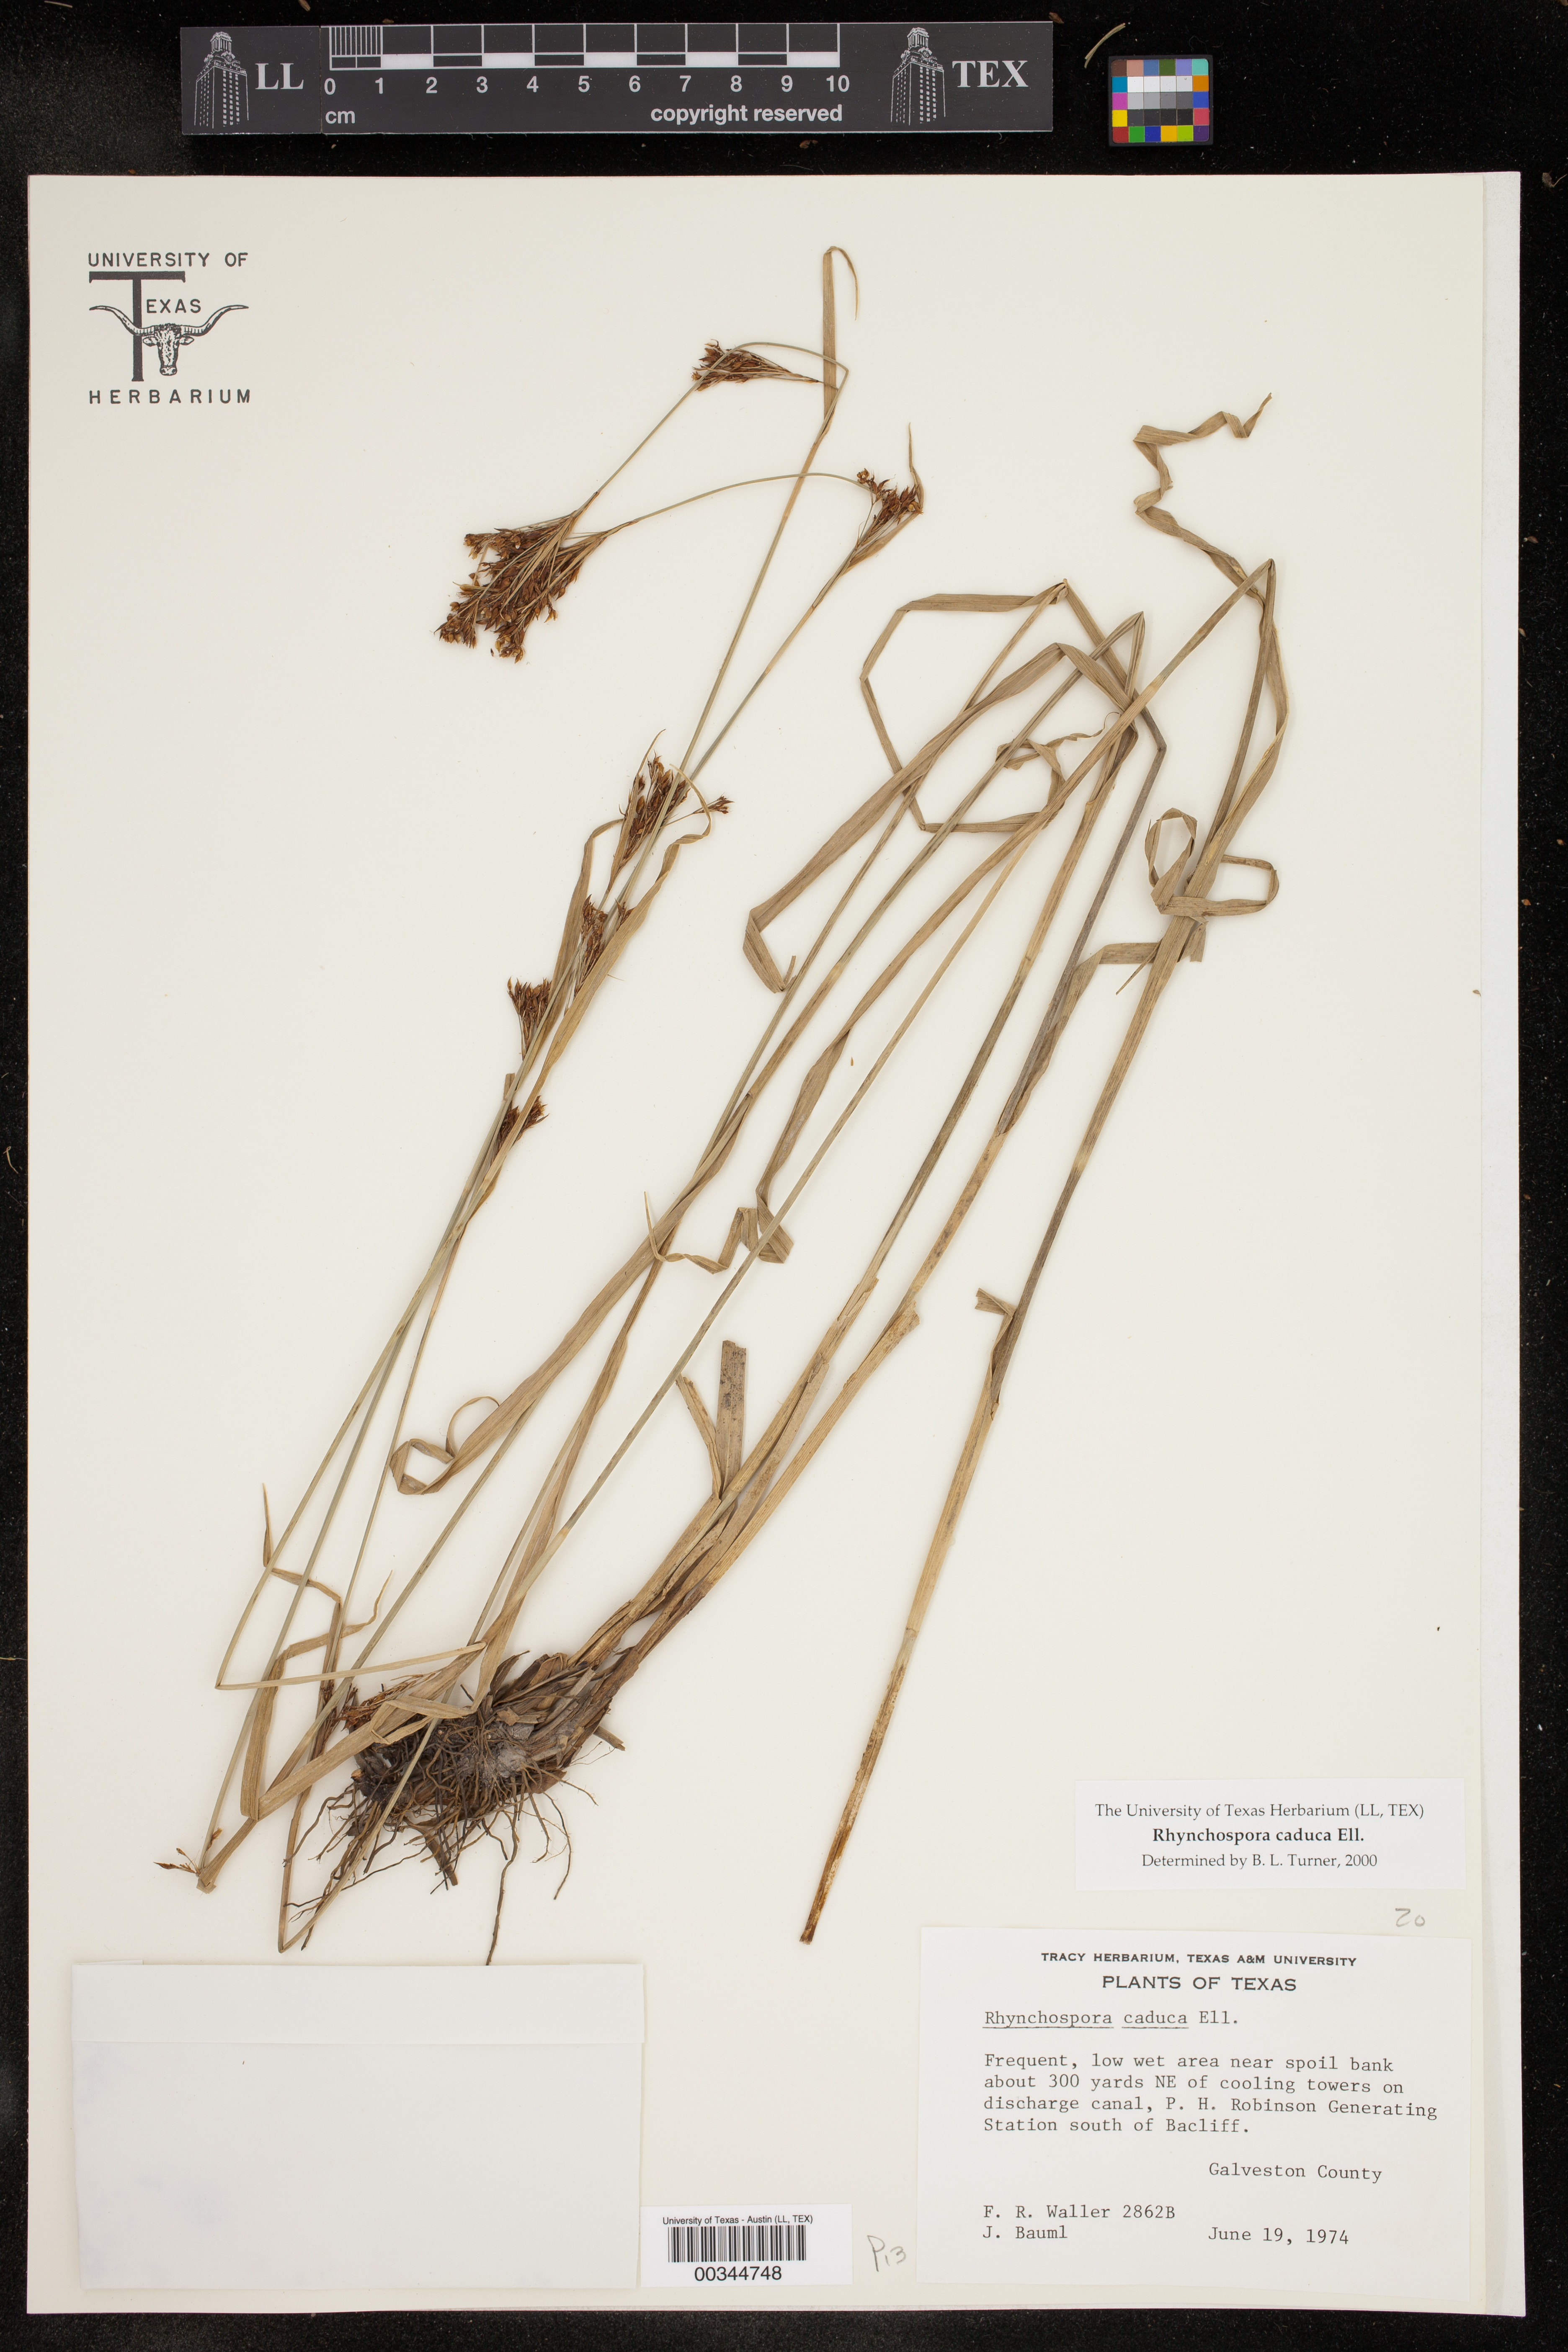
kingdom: Plantae
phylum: Tracheophyta
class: Liliopsida
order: Poales
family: Cyperaceae
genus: Rhynchospora
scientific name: Rhynchospora caduca
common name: Anglestem beaksedge
